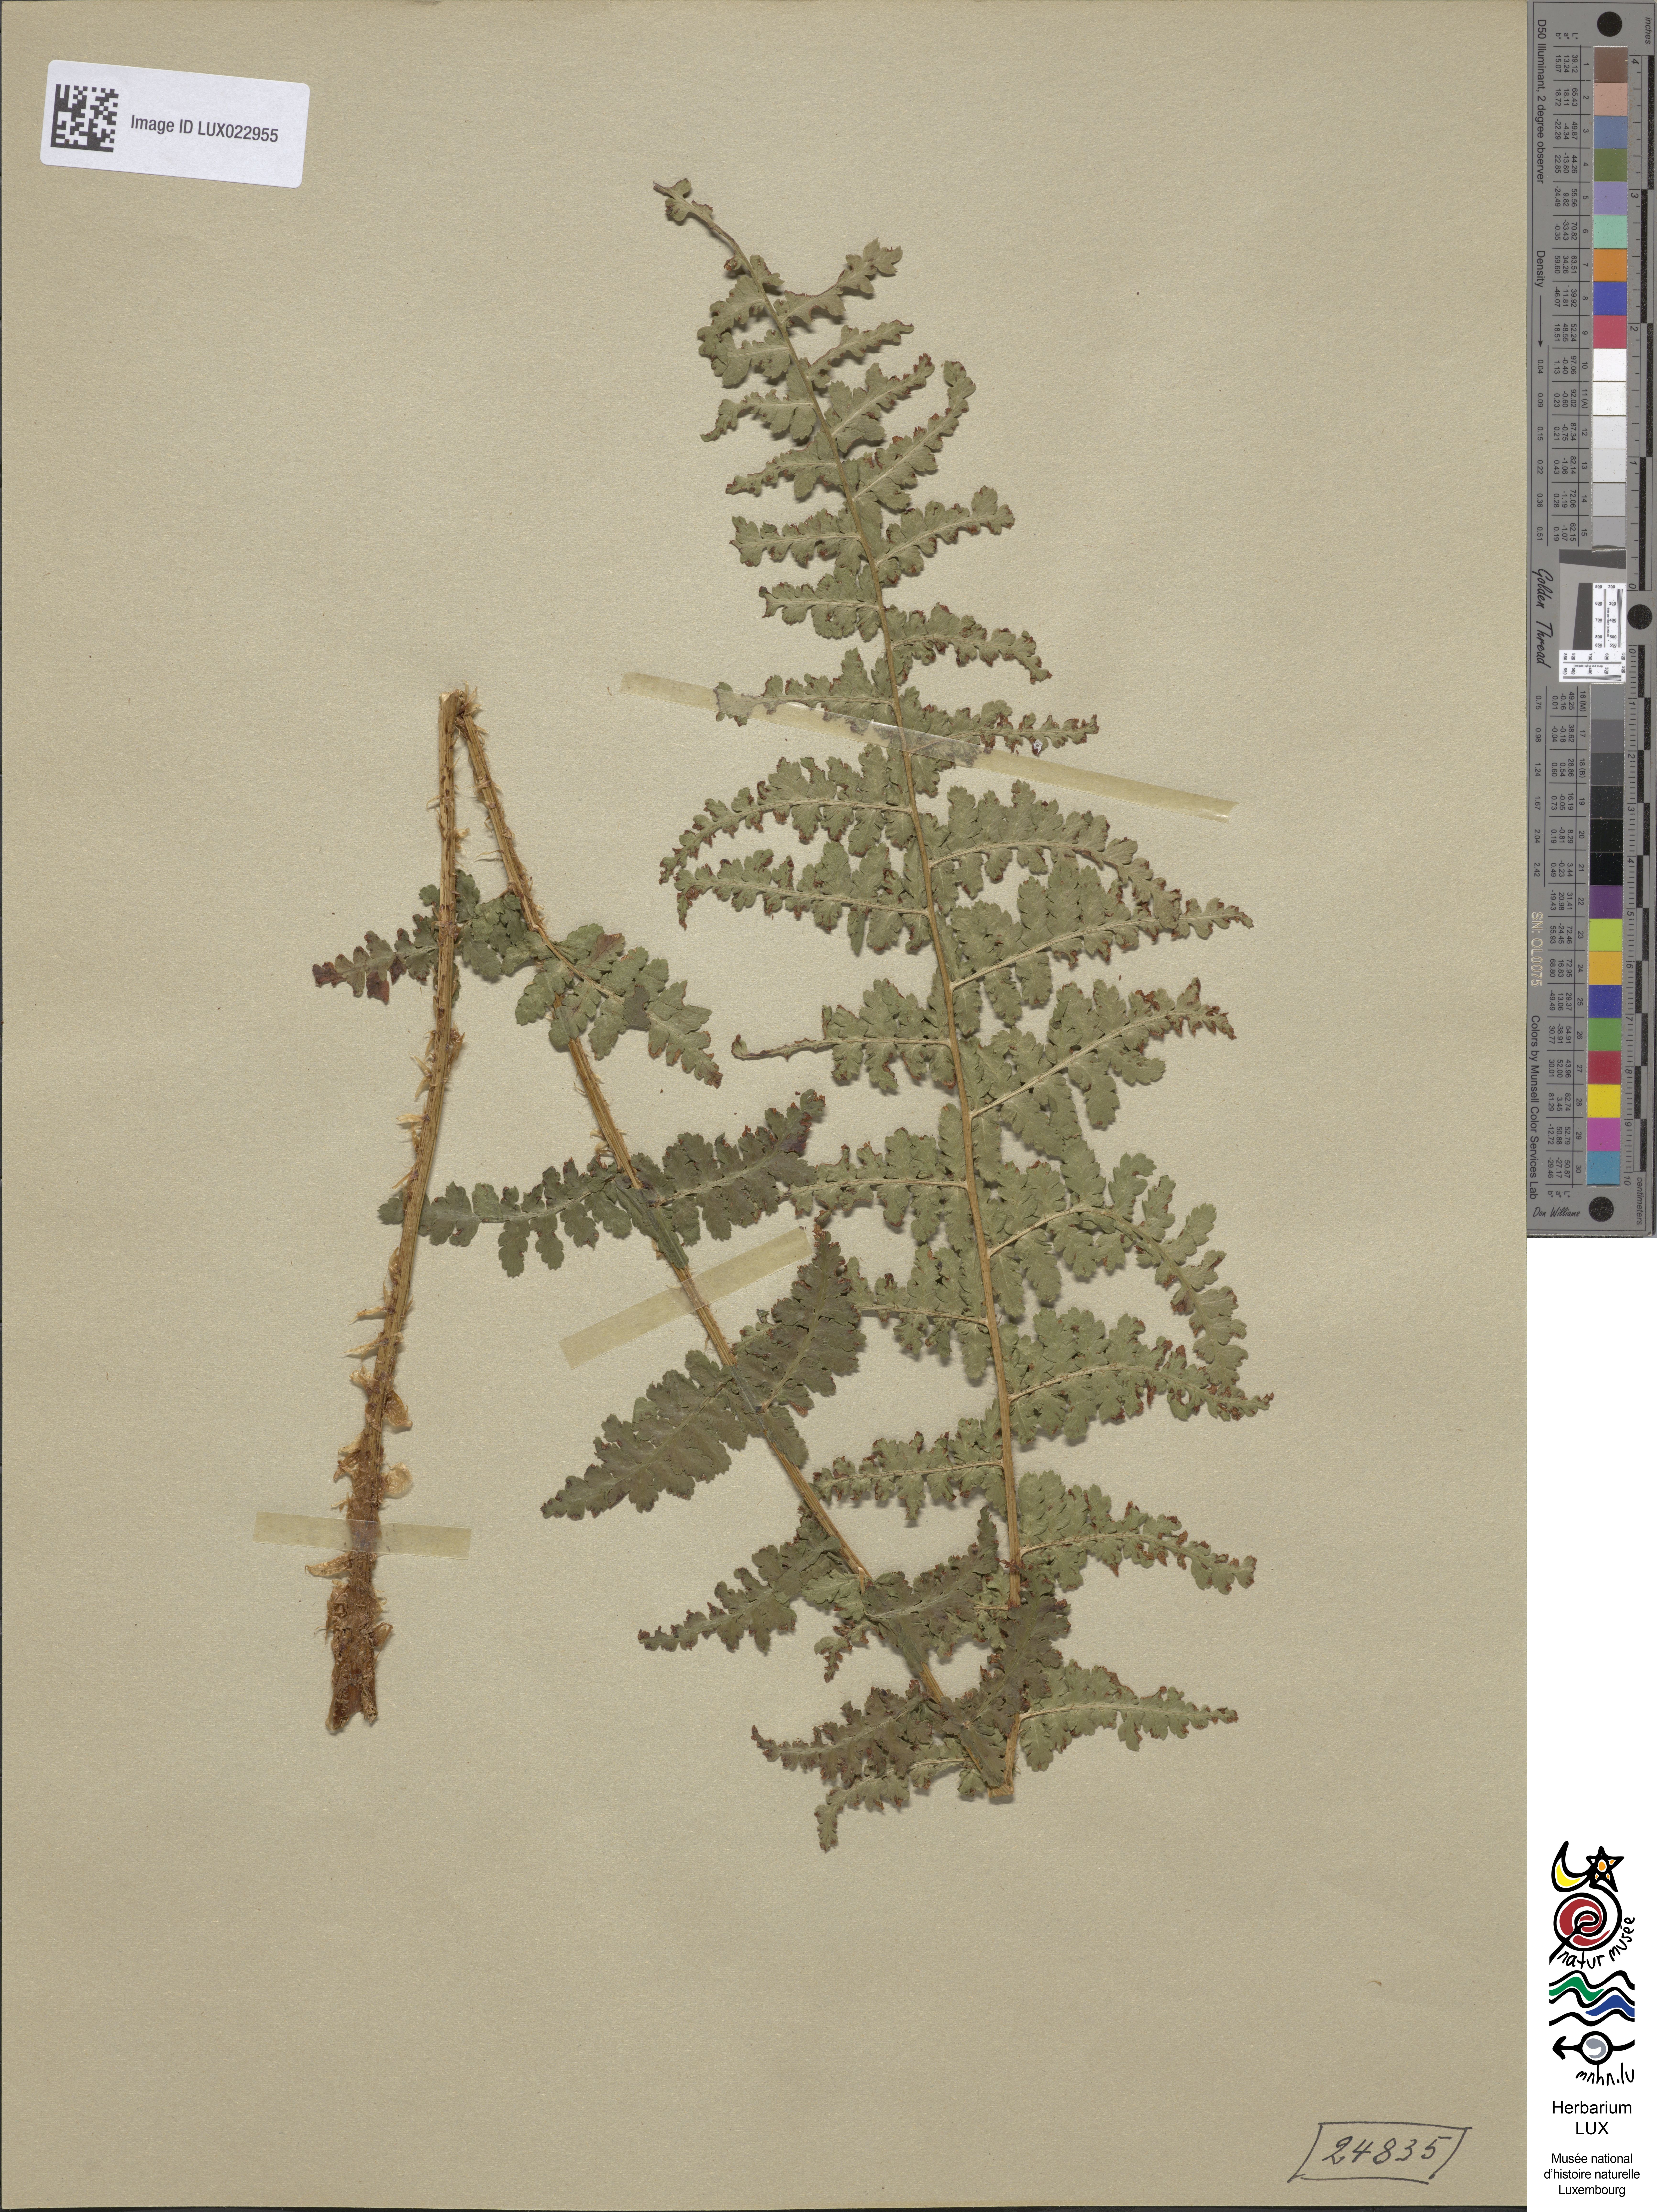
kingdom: Plantae
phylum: Tracheophyta
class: Polypodiopsida
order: Polypodiales
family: Dryopteridaceae
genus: Dryopteris
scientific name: Dryopteris filix-mas
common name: Male fern
